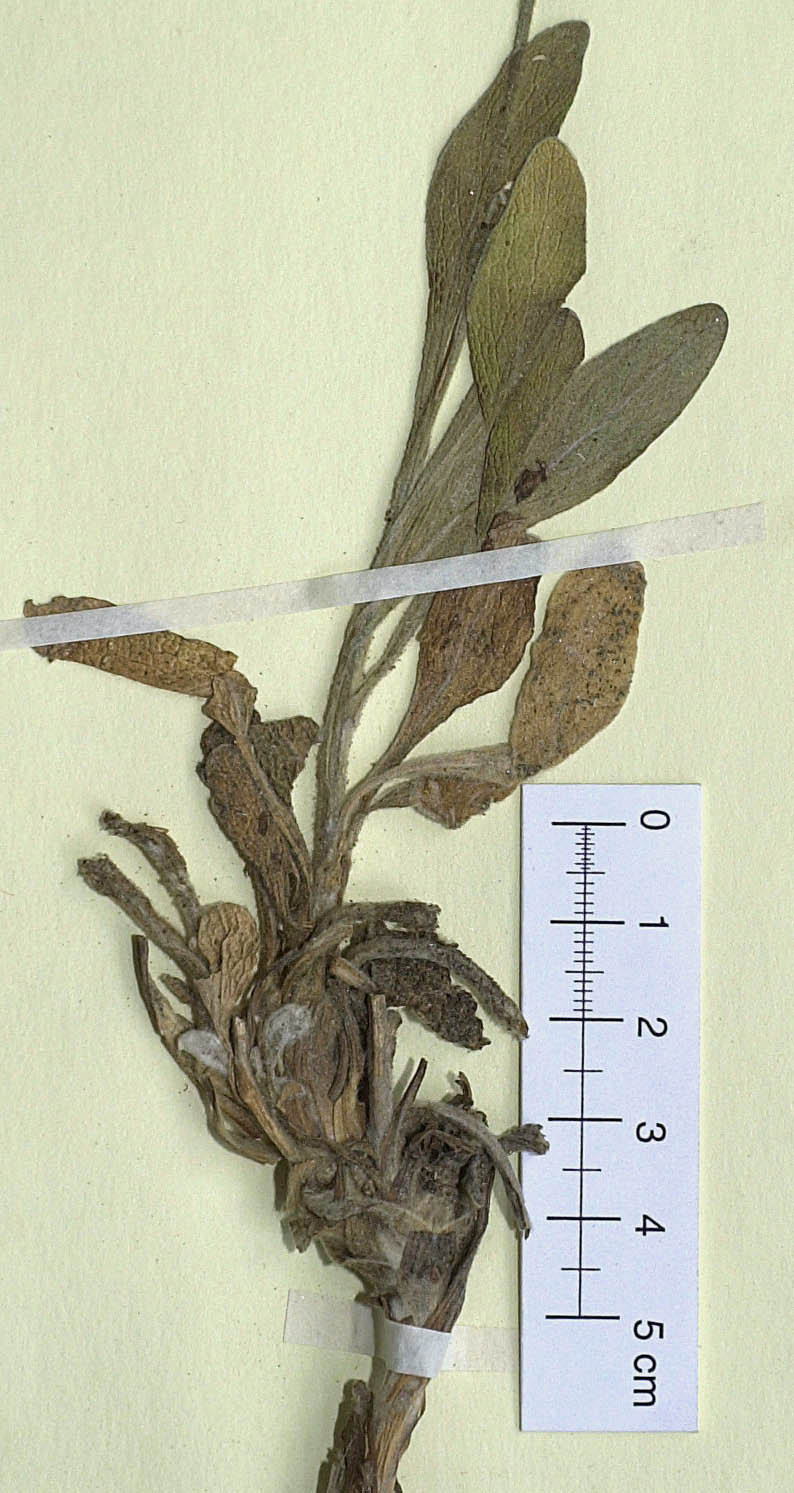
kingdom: Plantae
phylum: Tracheophyta
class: Magnoliopsida
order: Asterales
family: Asteraceae
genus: Inula
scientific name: Inula subfloccosa
